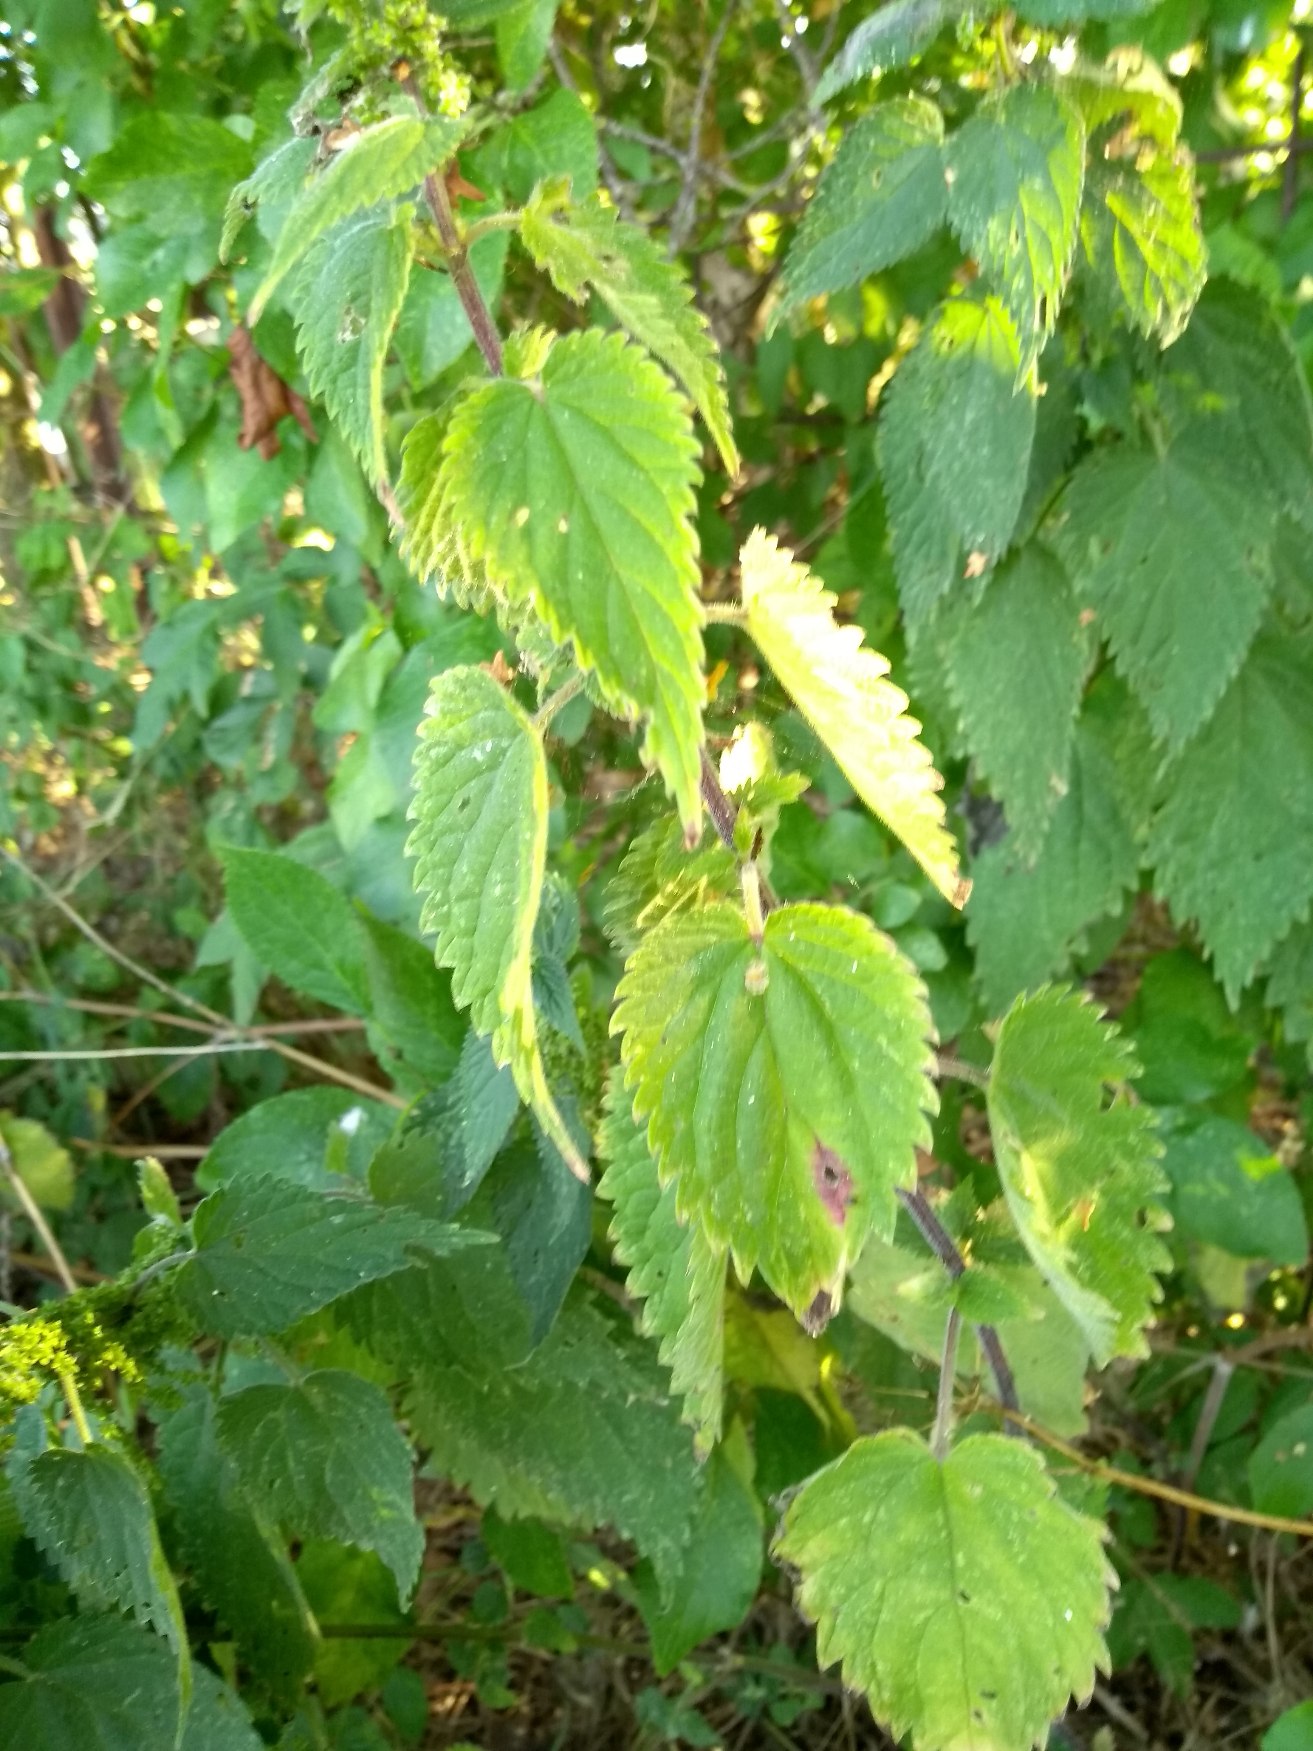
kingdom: Plantae
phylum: Tracheophyta
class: Magnoliopsida
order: Rosales
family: Urticaceae
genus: Urtica
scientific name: Urtica dioica
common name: Stor nælde
